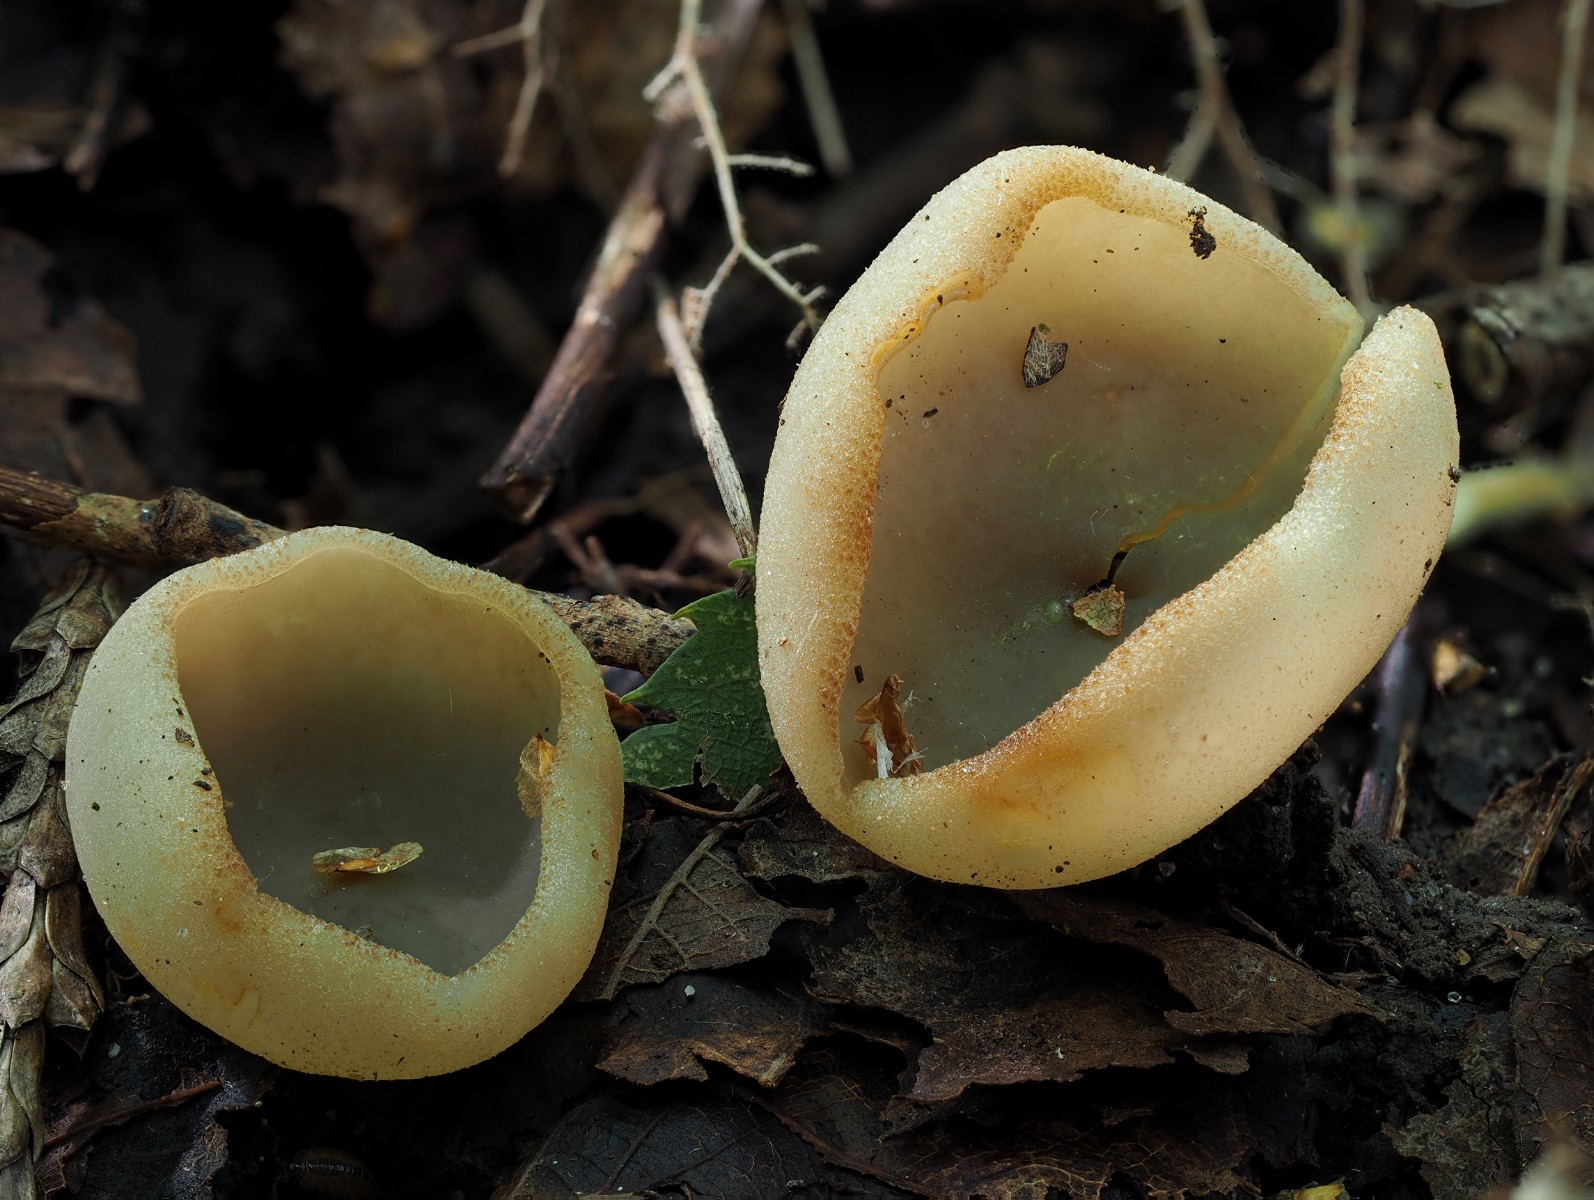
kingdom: Fungi
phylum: Ascomycota
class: Pezizomycetes
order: Pezizales
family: Pezizaceae
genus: Peziza
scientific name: Peziza
